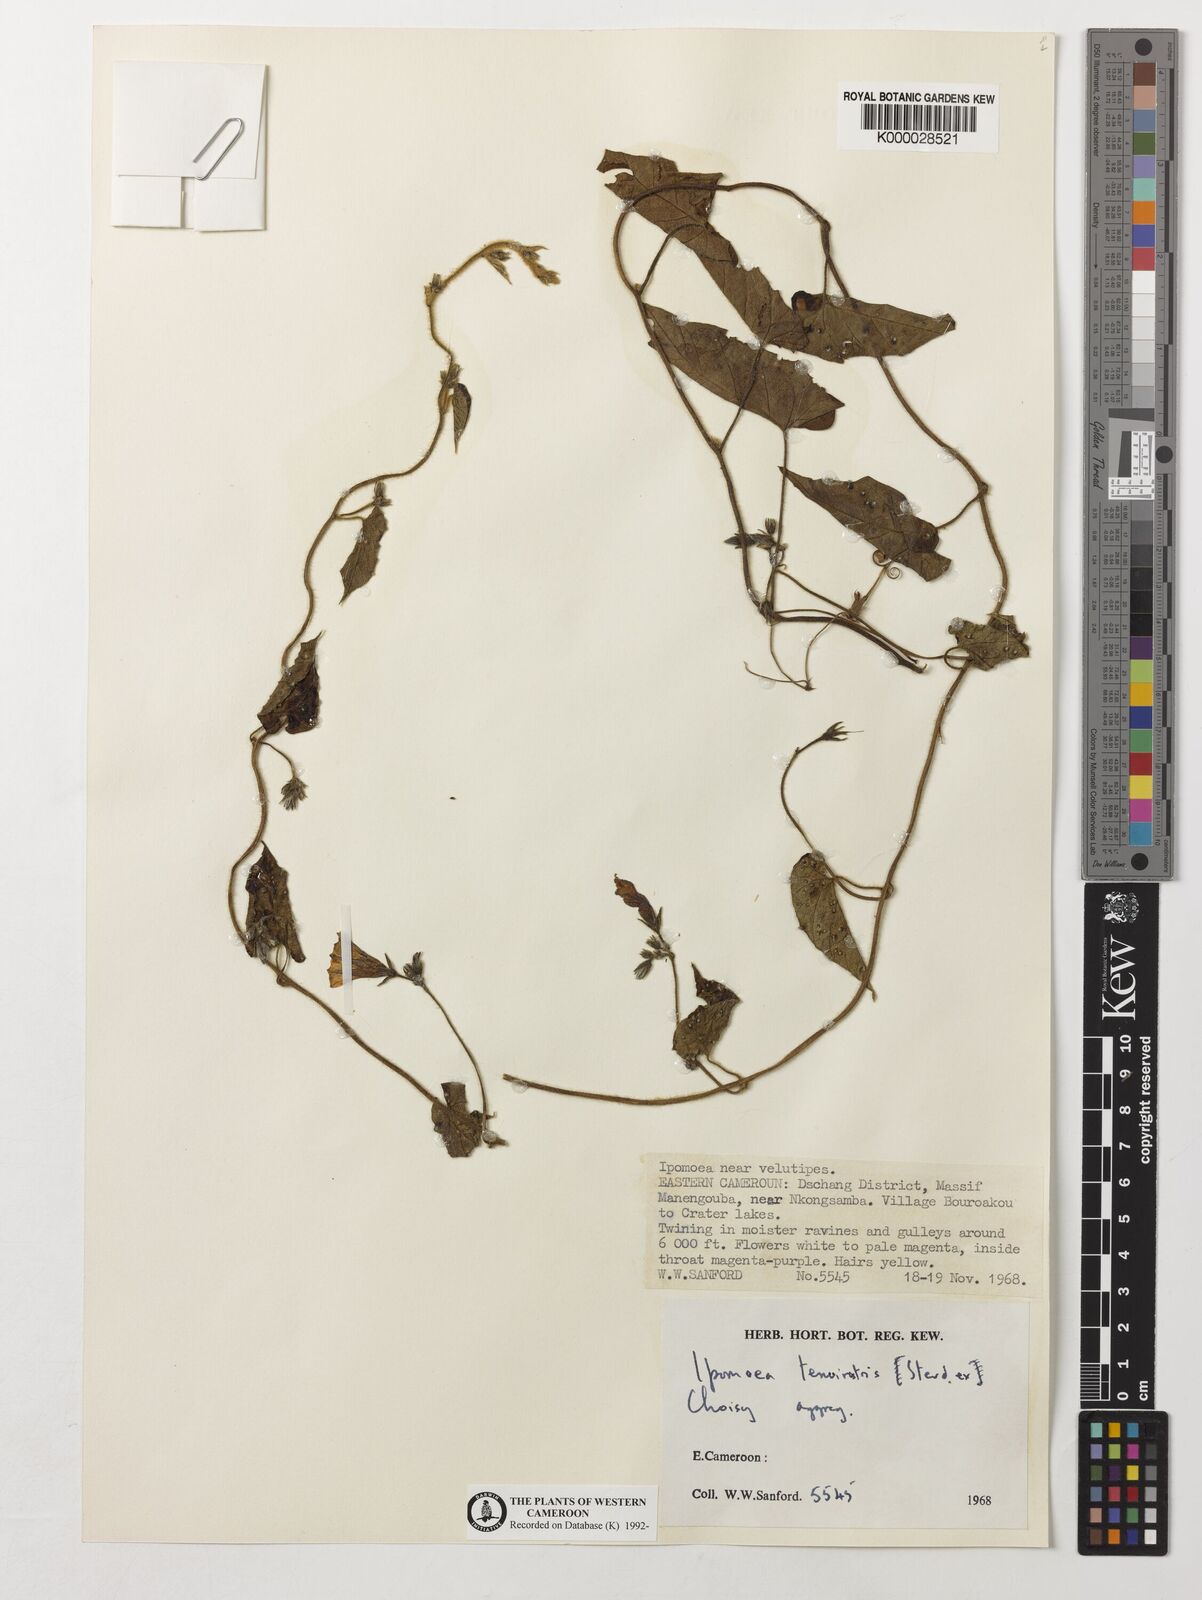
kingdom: Plantae
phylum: Tracheophyta
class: Magnoliopsida
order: Solanales
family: Convolvulaceae
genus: Ipomoea
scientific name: Ipomoea tenuirostris
